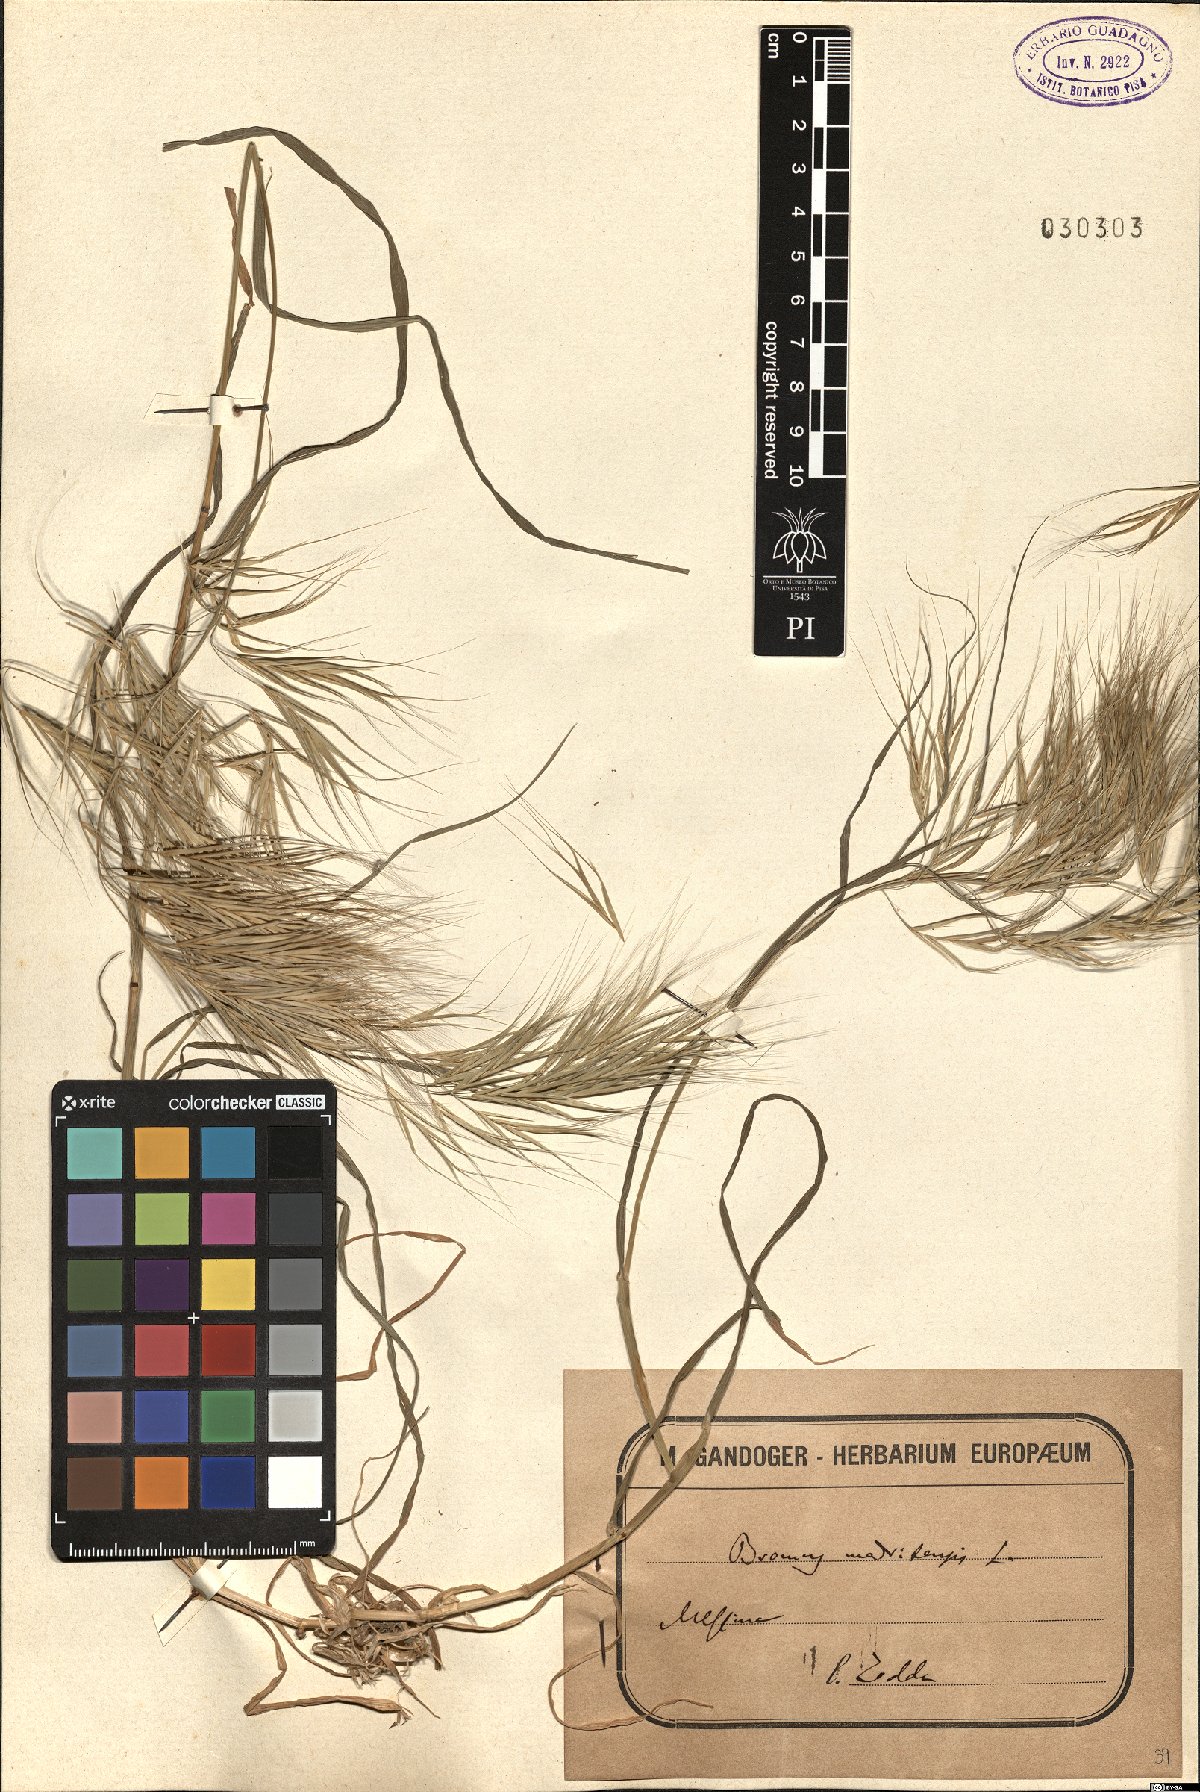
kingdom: Plantae
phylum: Tracheophyta
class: Liliopsida
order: Poales
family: Poaceae
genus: Bromus
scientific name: Bromus madritensis
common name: Compact brome
